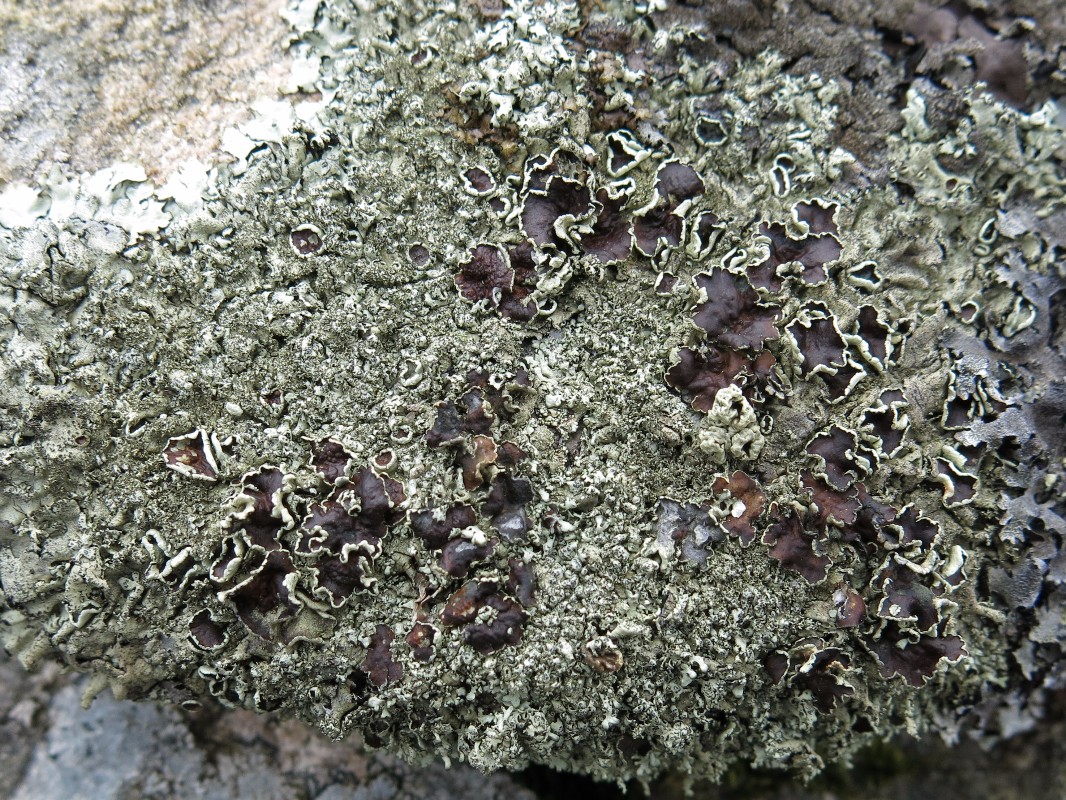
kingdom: Fungi
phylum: Ascomycota
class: Lecanoromycetes
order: Lecanorales
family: Parmeliaceae
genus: Xanthoparmelia
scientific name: Xanthoparmelia conspersa
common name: messing-skållav
